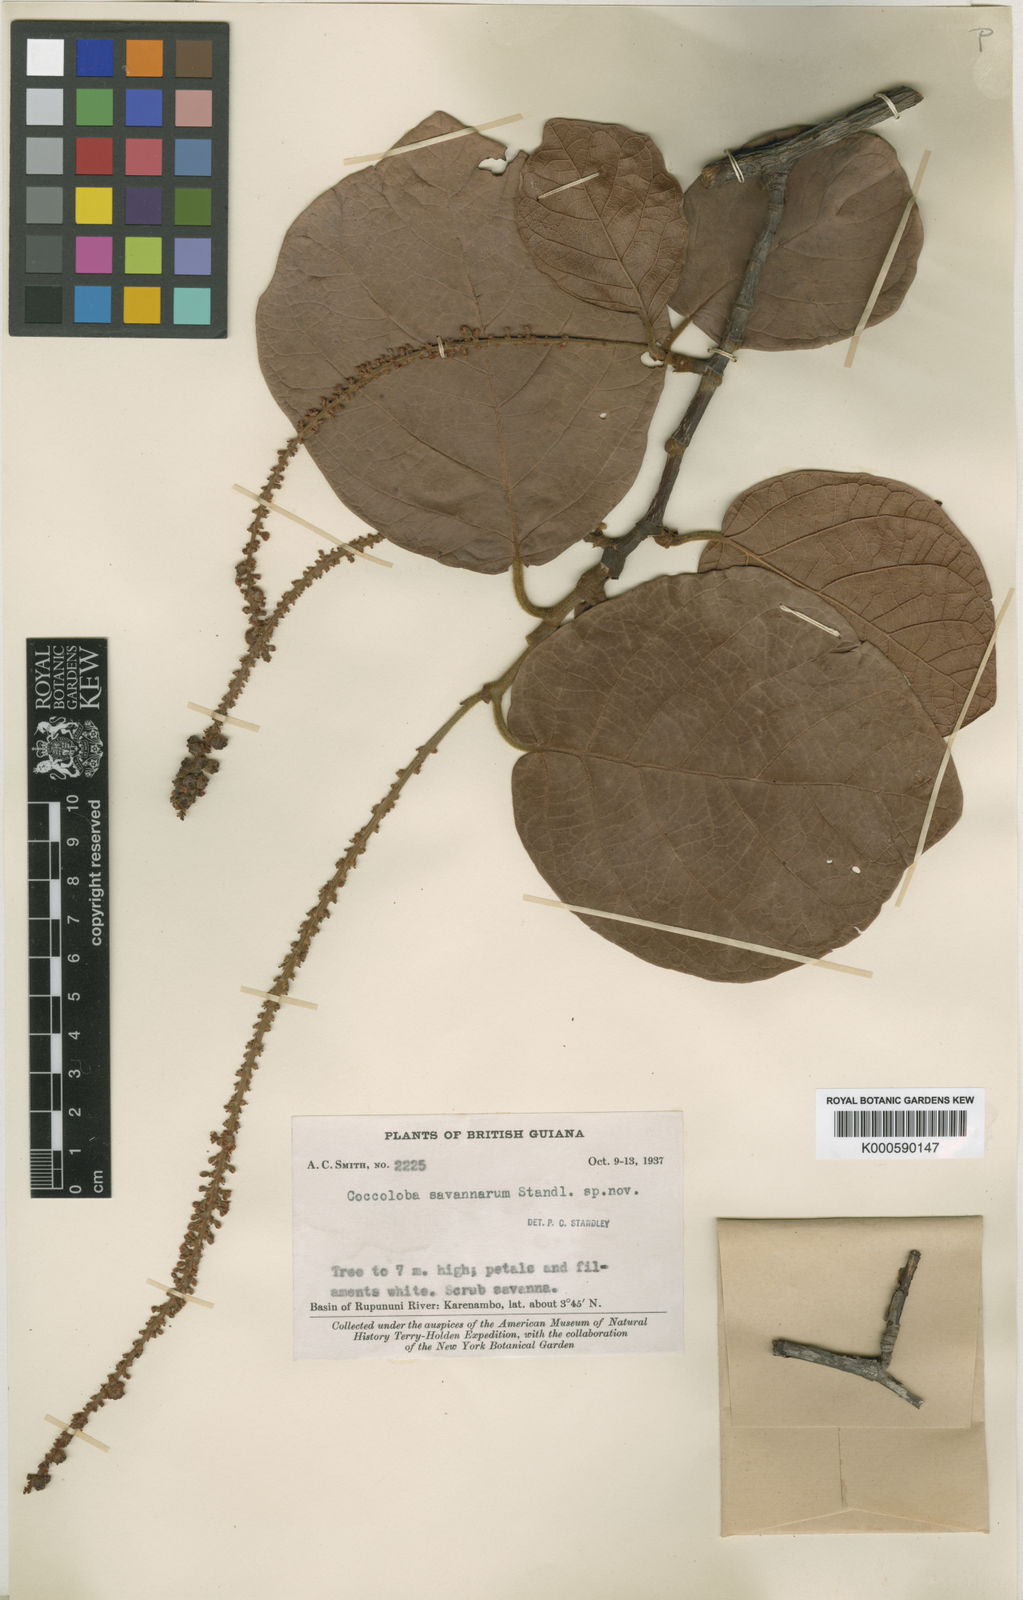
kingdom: Plantae
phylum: Tracheophyta
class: Magnoliopsida
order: Caryophyllales
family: Polygonaceae
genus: Coccoloba
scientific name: Coccoloba savannarum
